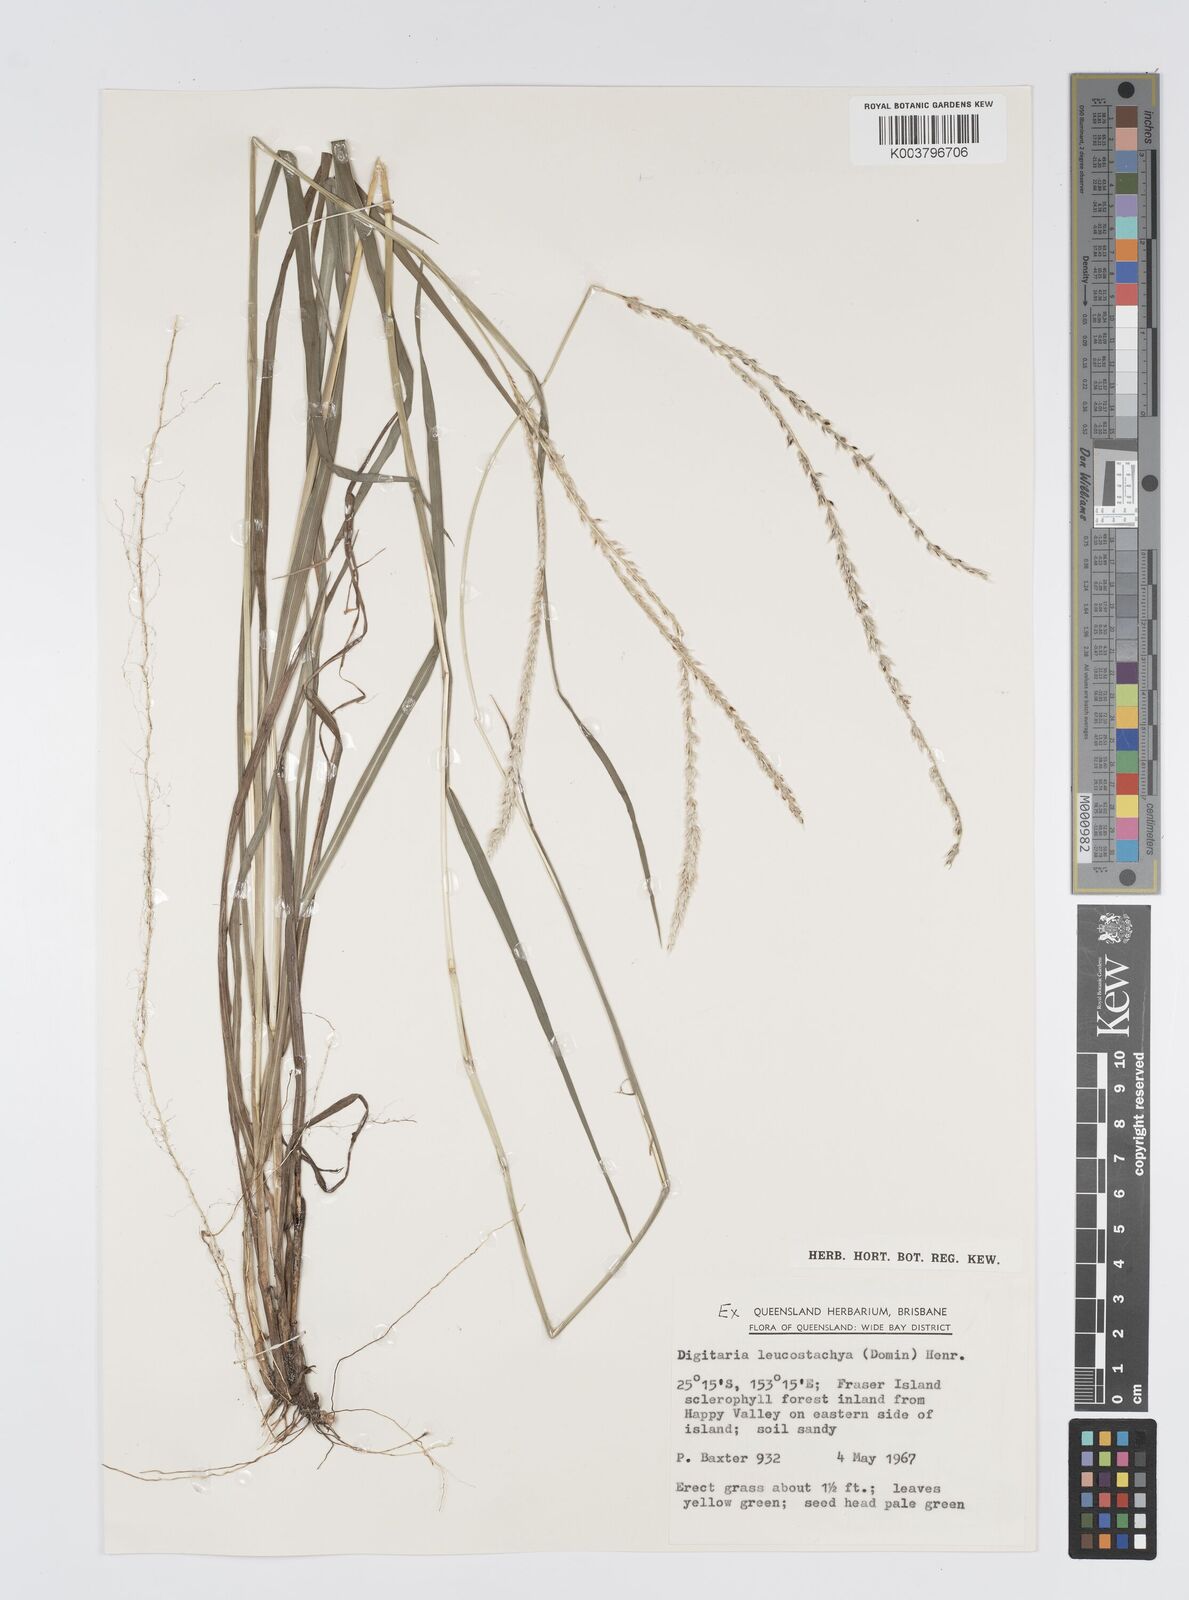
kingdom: Plantae
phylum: Tracheophyta
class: Liliopsida
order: Poales
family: Poaceae
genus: Digitaria
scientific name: Digitaria leucostachya
